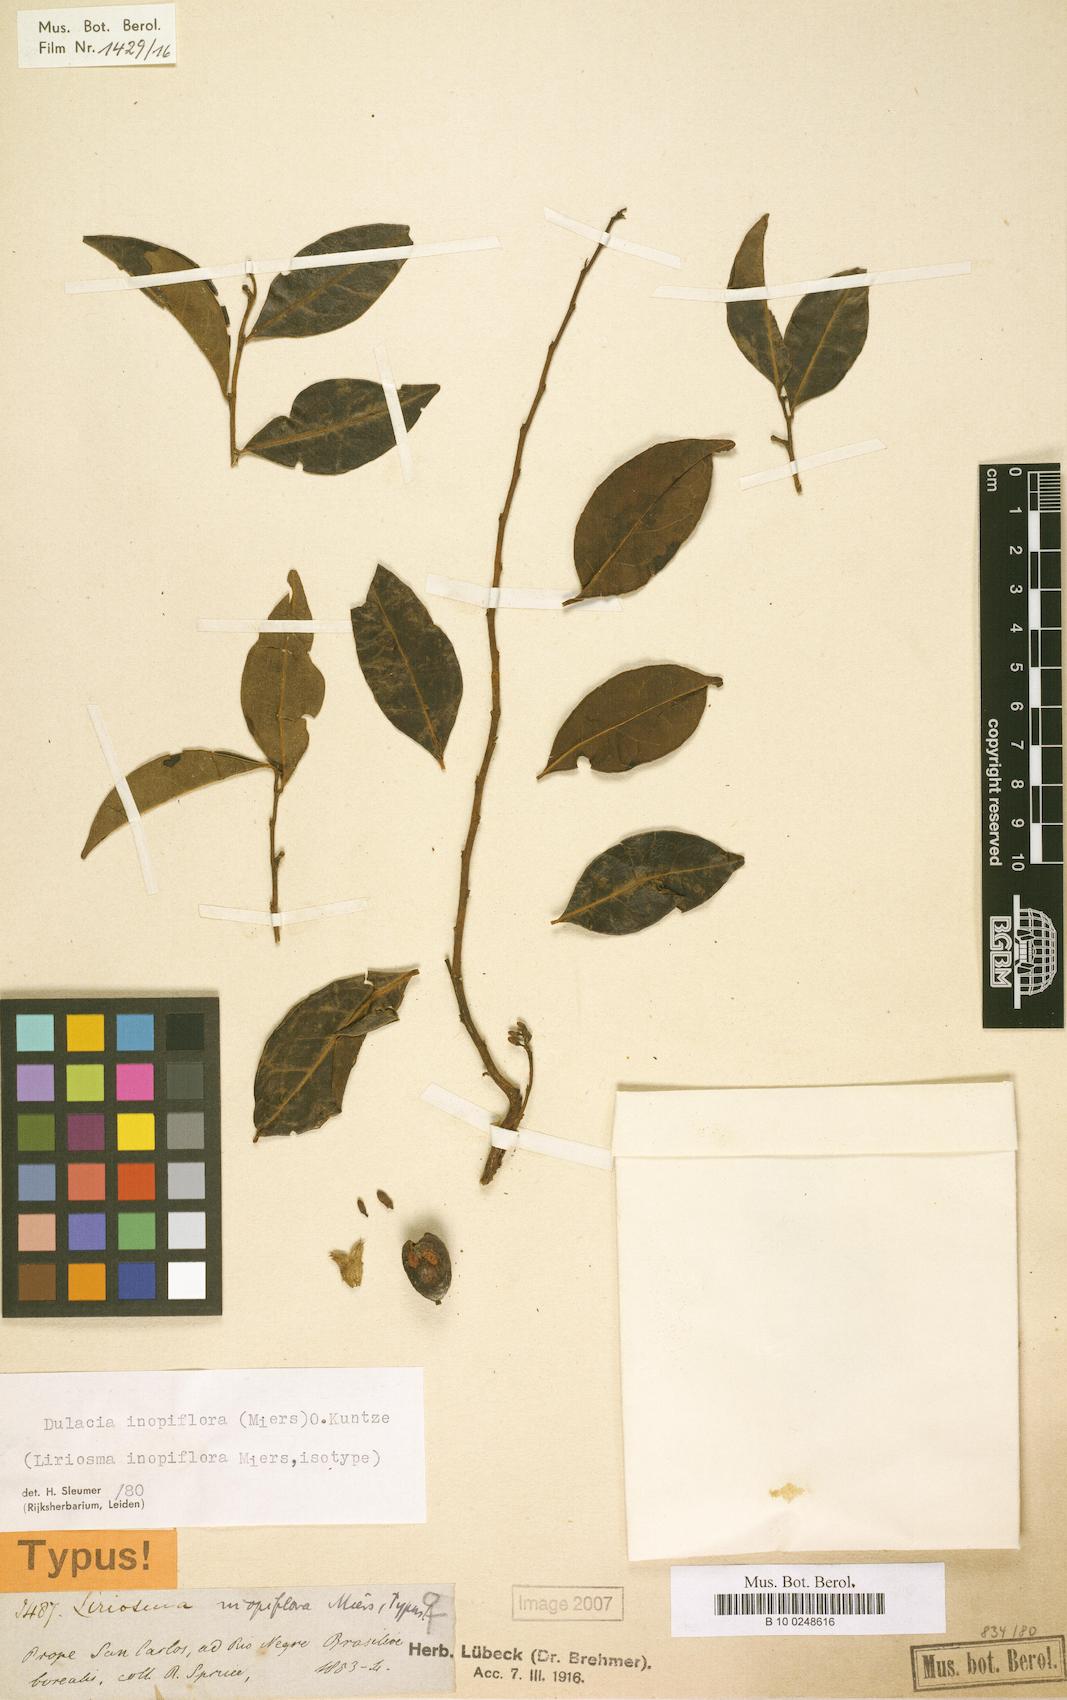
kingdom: Plantae
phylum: Tracheophyta
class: Magnoliopsida
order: Santalales
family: Olacaceae
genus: Dulacia
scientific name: Dulacia inopiflora
